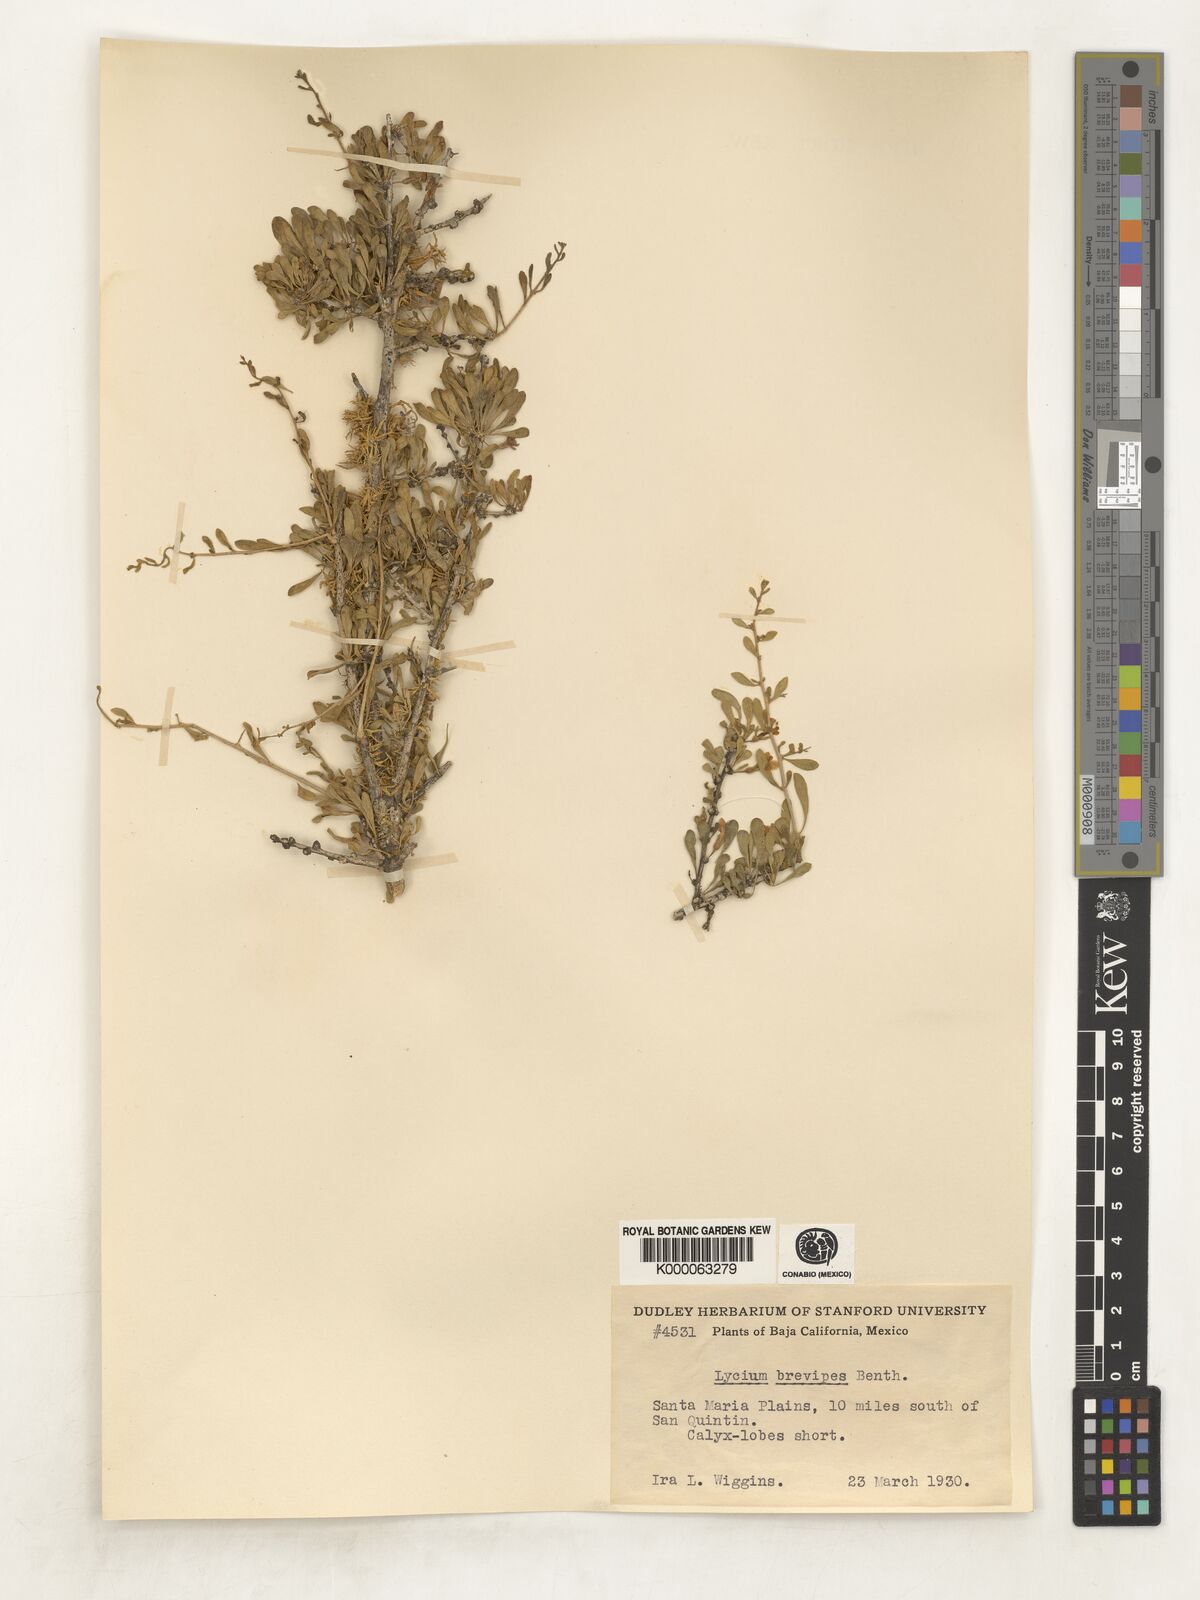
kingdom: Plantae
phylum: Tracheophyta
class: Magnoliopsida
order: Solanales
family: Solanaceae
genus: Lycium
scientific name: Lycium brevipes
